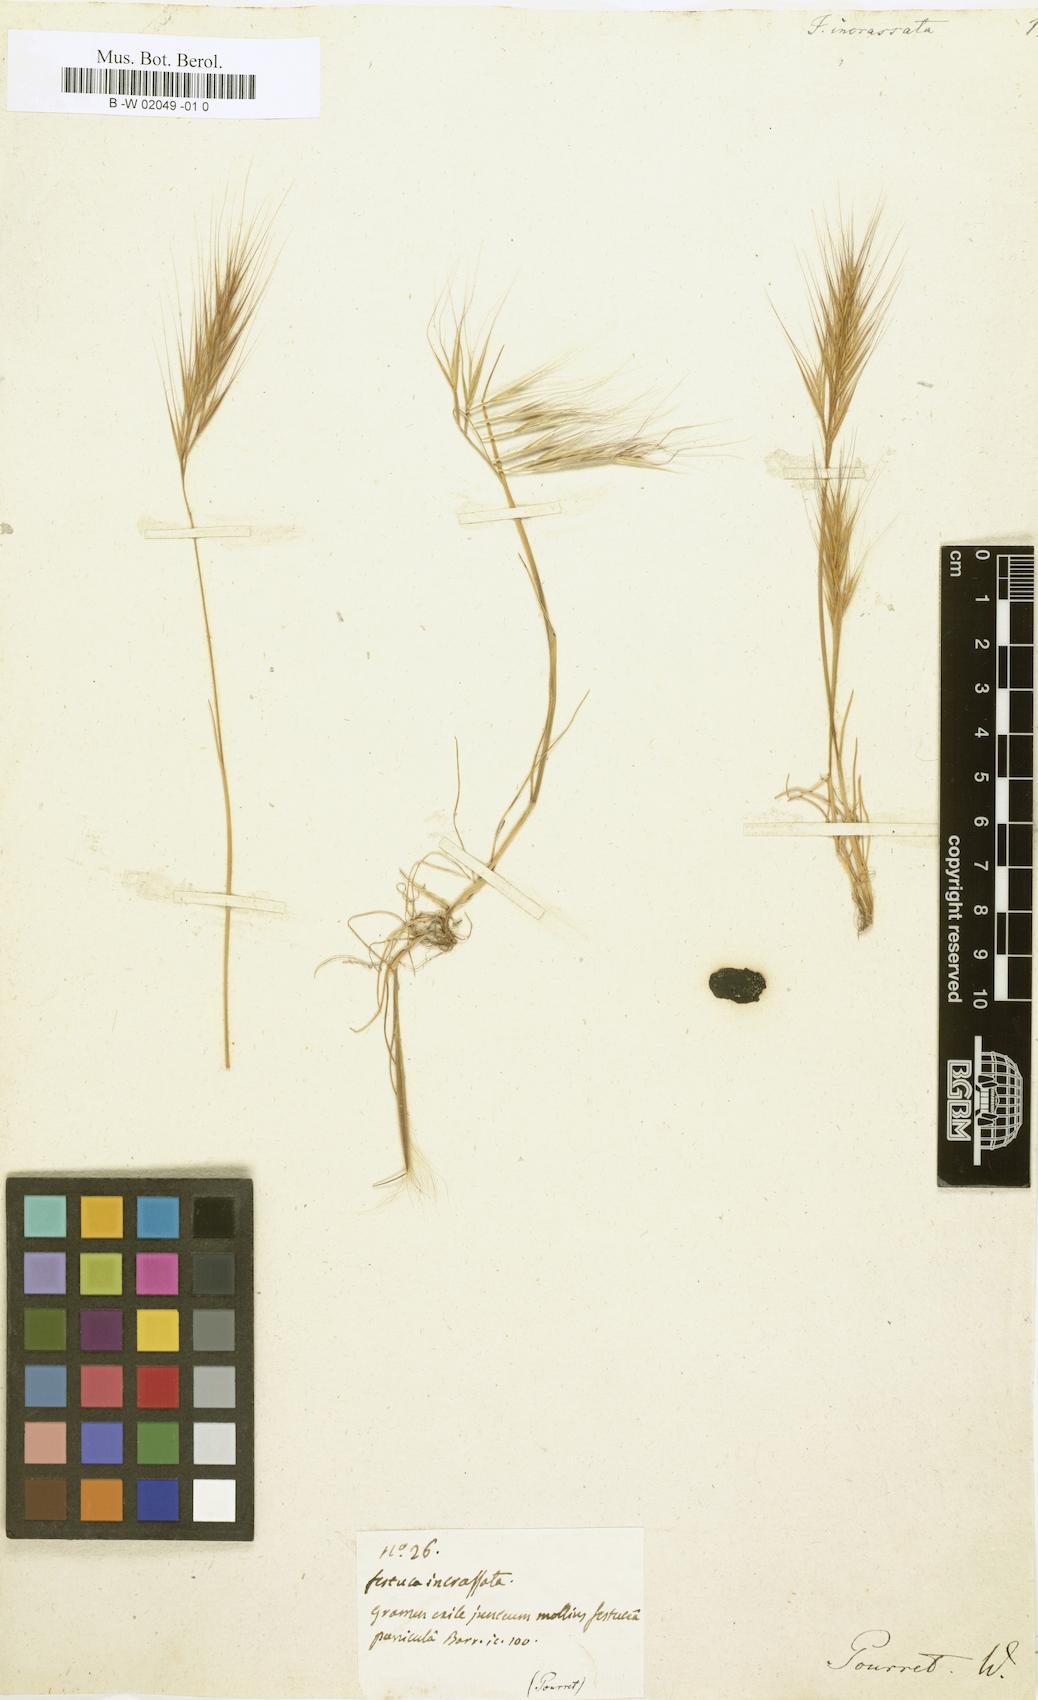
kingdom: Plantae
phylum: Tracheophyta
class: Liliopsida
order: Poales
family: Poaceae
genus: Vulpiella
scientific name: Vulpiella stipoides
